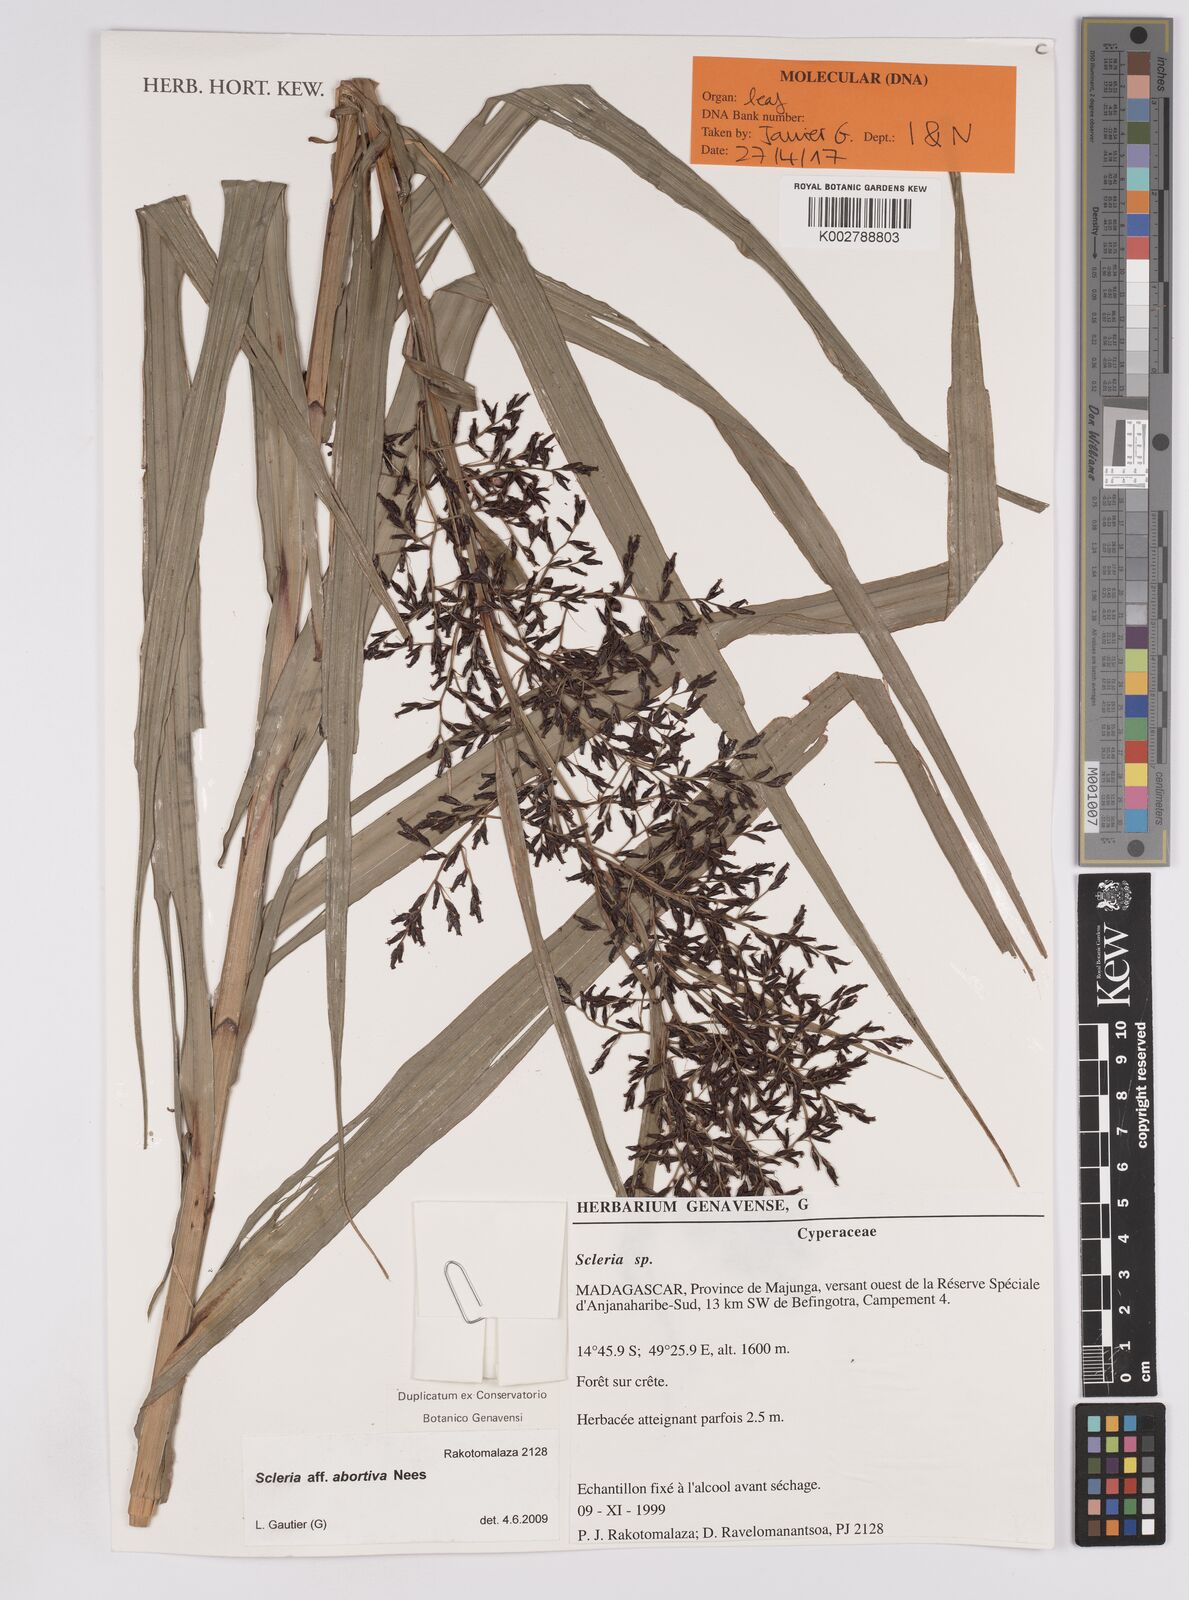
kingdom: Plantae
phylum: Tracheophyta
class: Liliopsida
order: Poales
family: Cyperaceae
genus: Scleria
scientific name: Scleria
